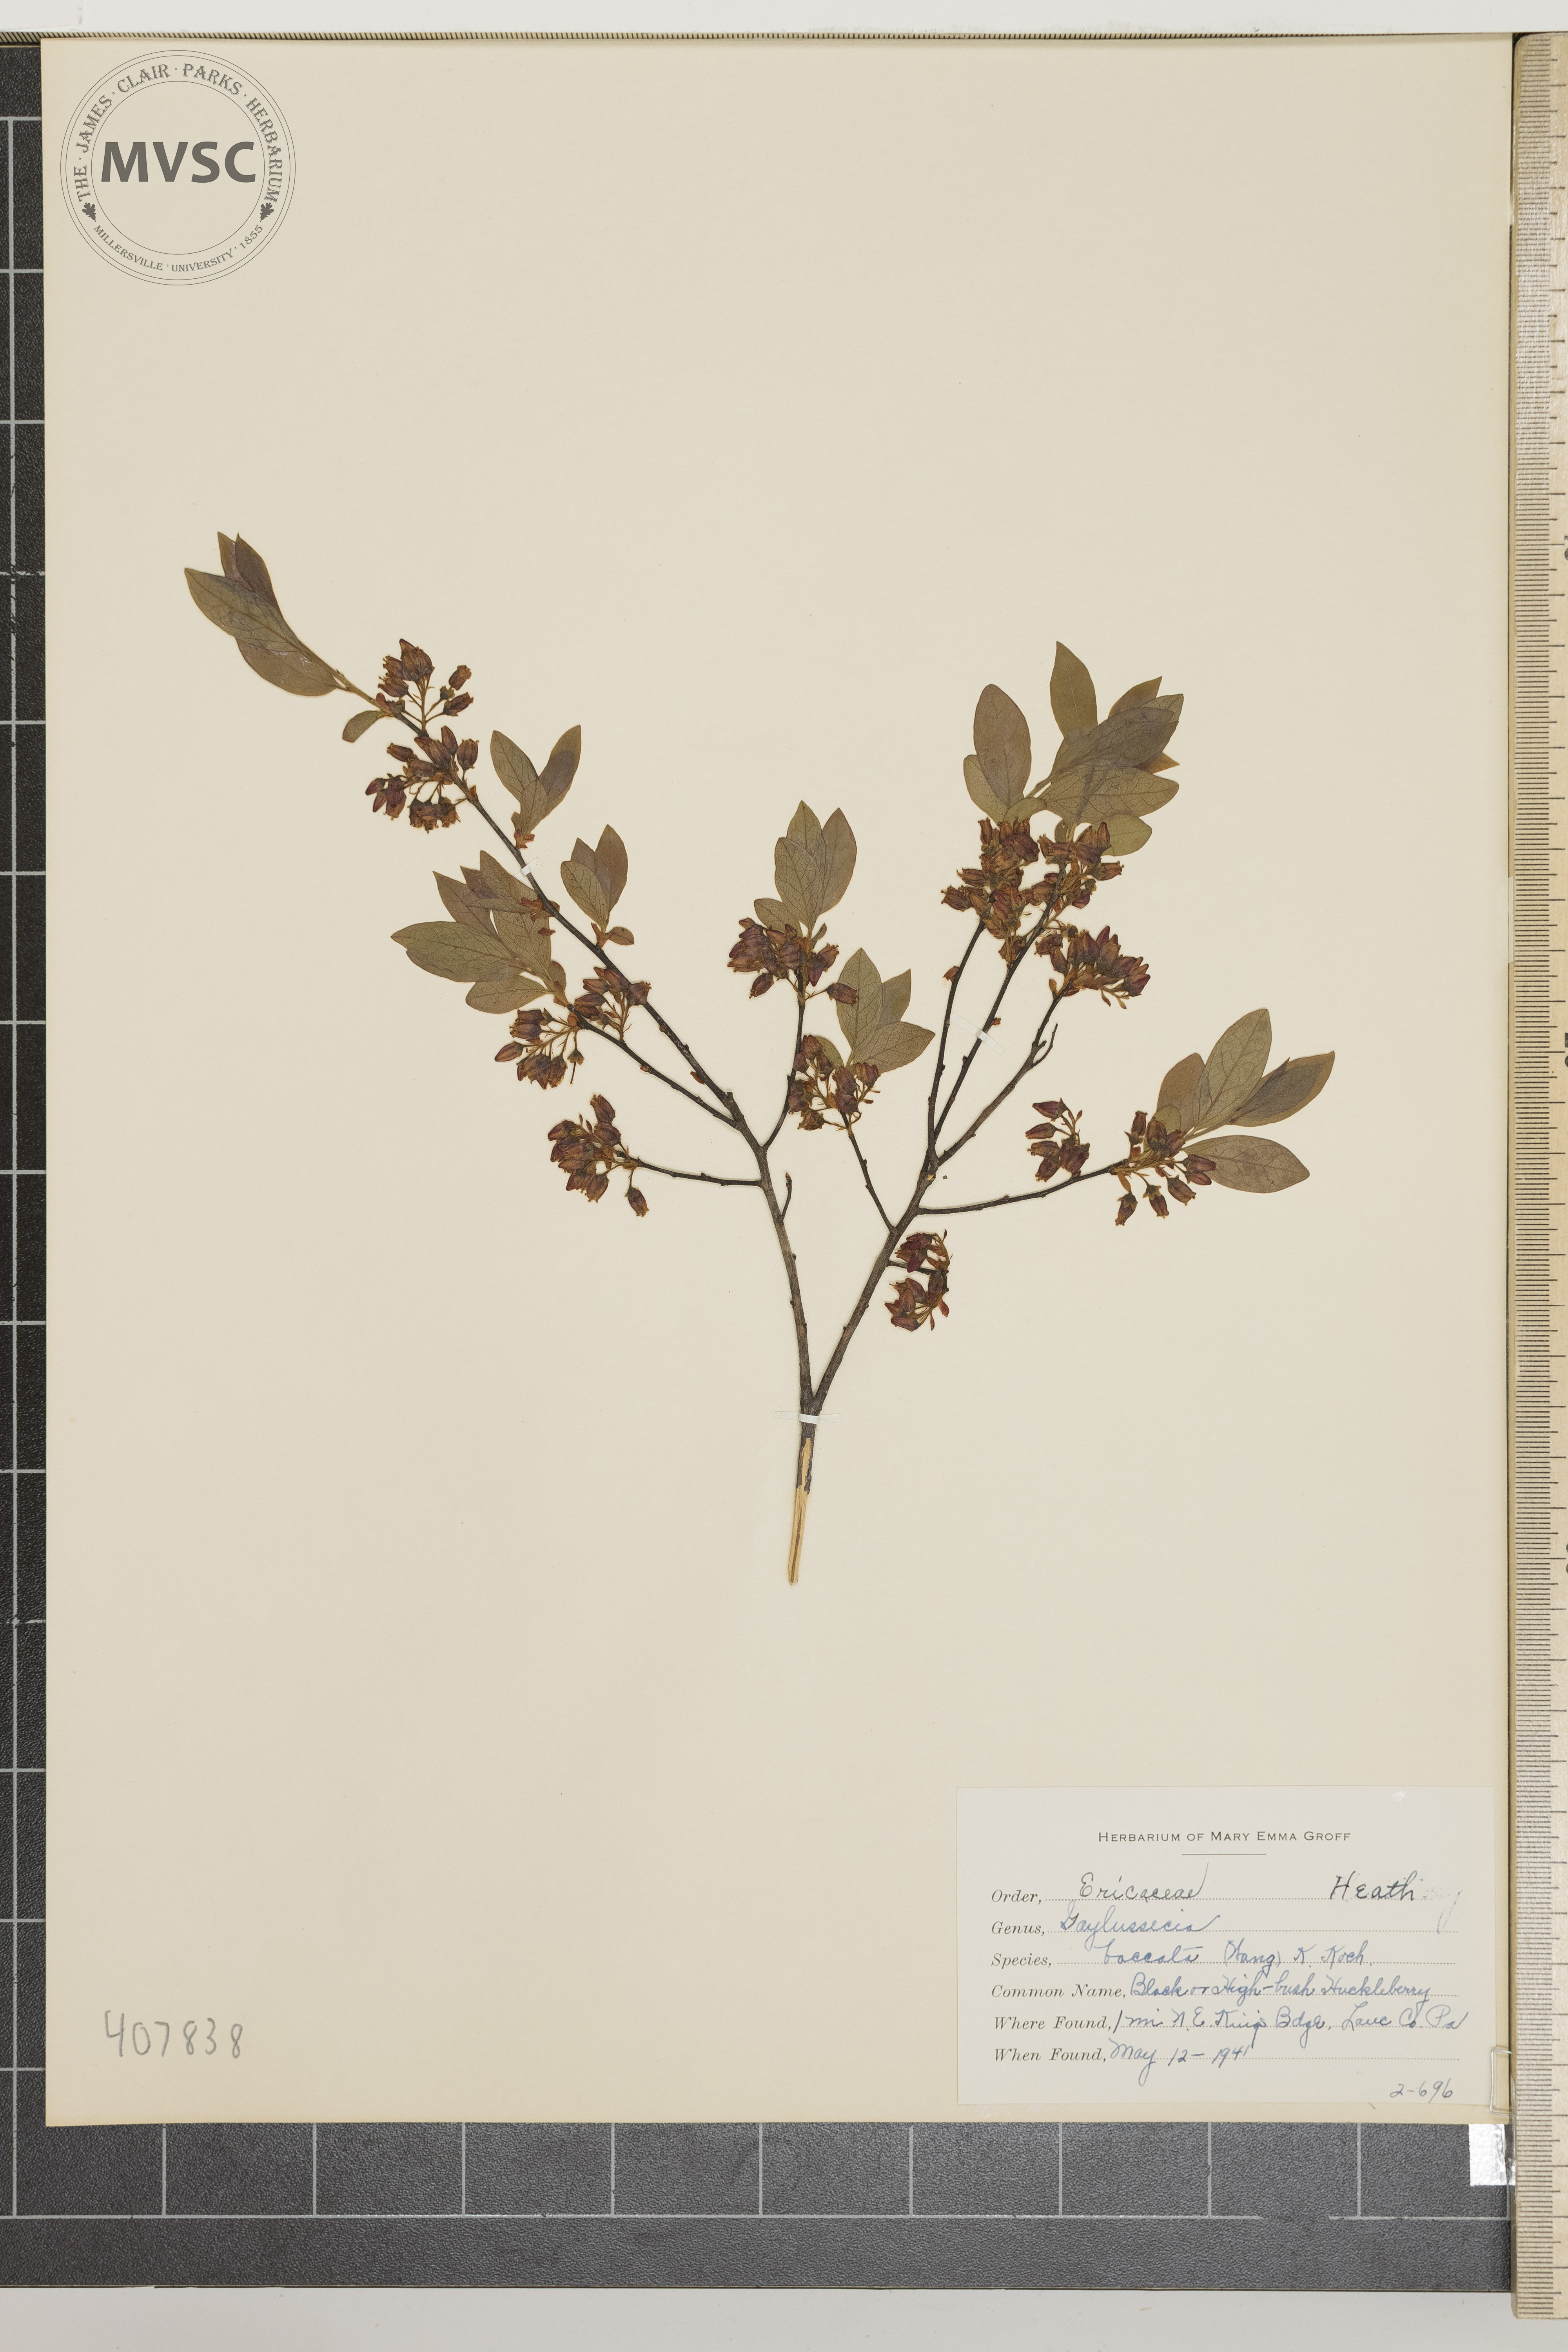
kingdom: Plantae
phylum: Tracheophyta
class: Magnoliopsida
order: Ericales
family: Ericaceae
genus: Gaylussacia
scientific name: Gaylussacia baccata
